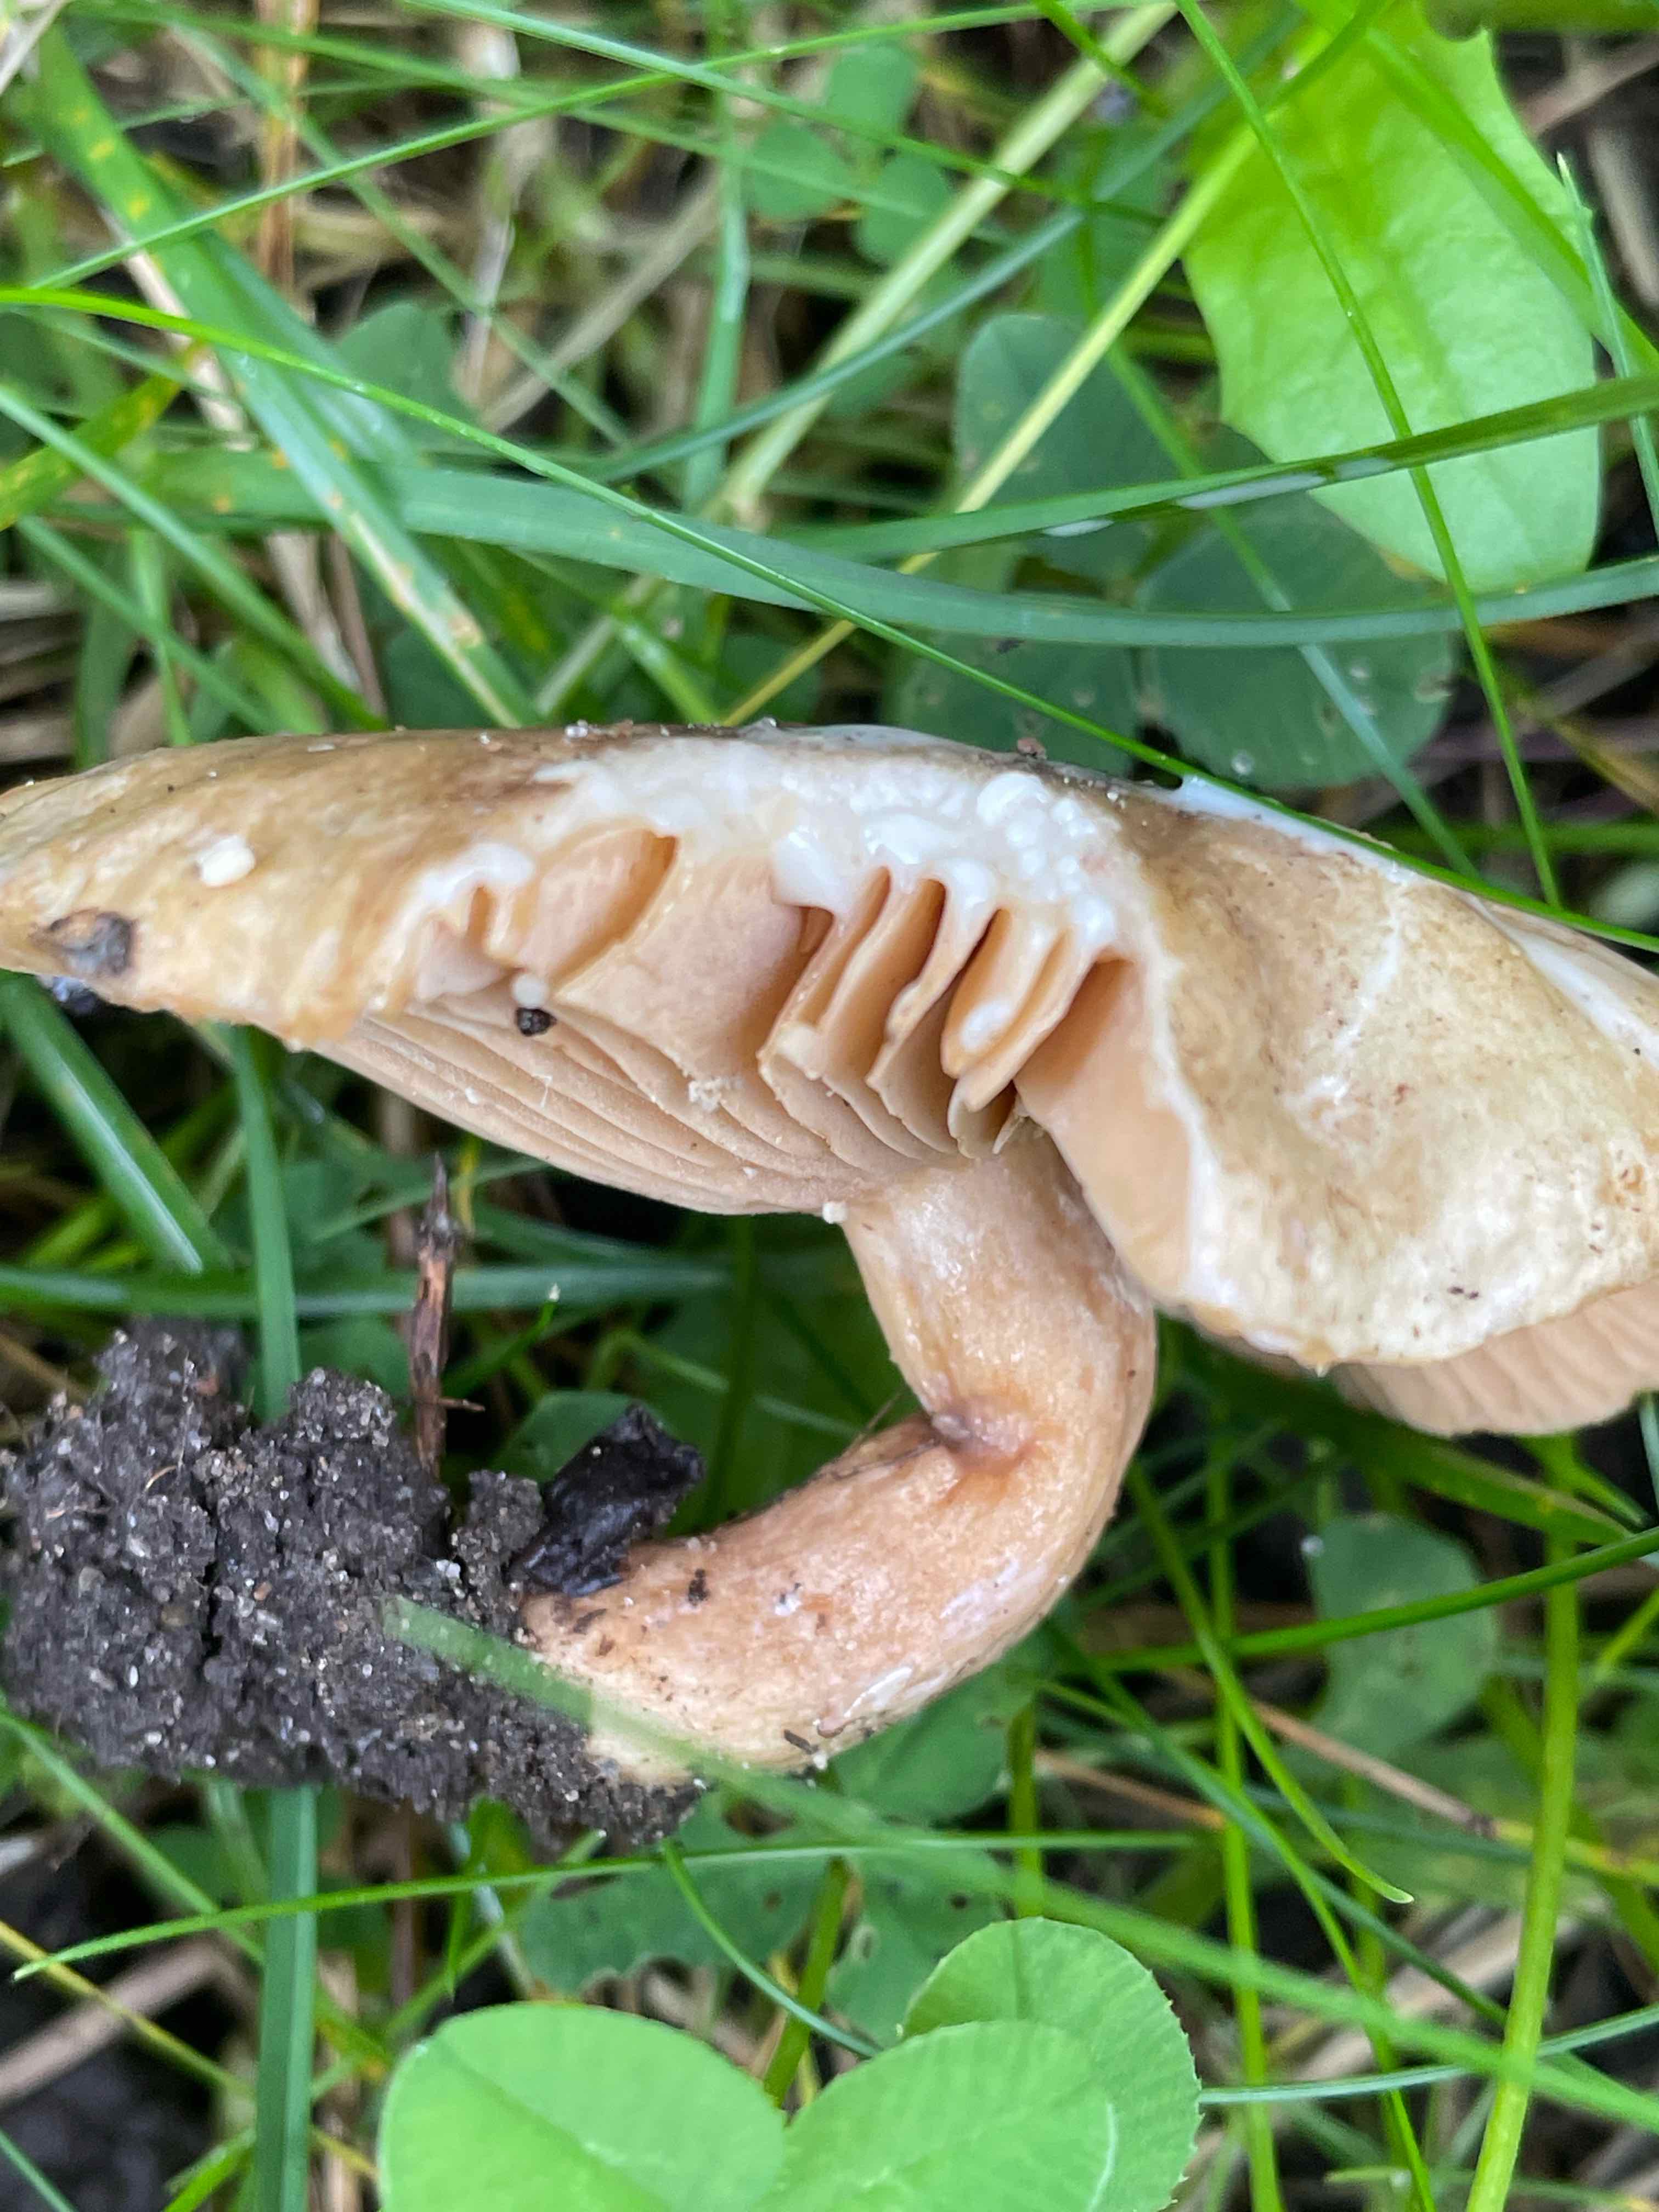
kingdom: Fungi
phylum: Basidiomycota
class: Agaricomycetes
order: Russulales
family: Russulaceae
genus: Lactarius
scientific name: Lactarius pyrogalus
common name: hassel-mælkehat
